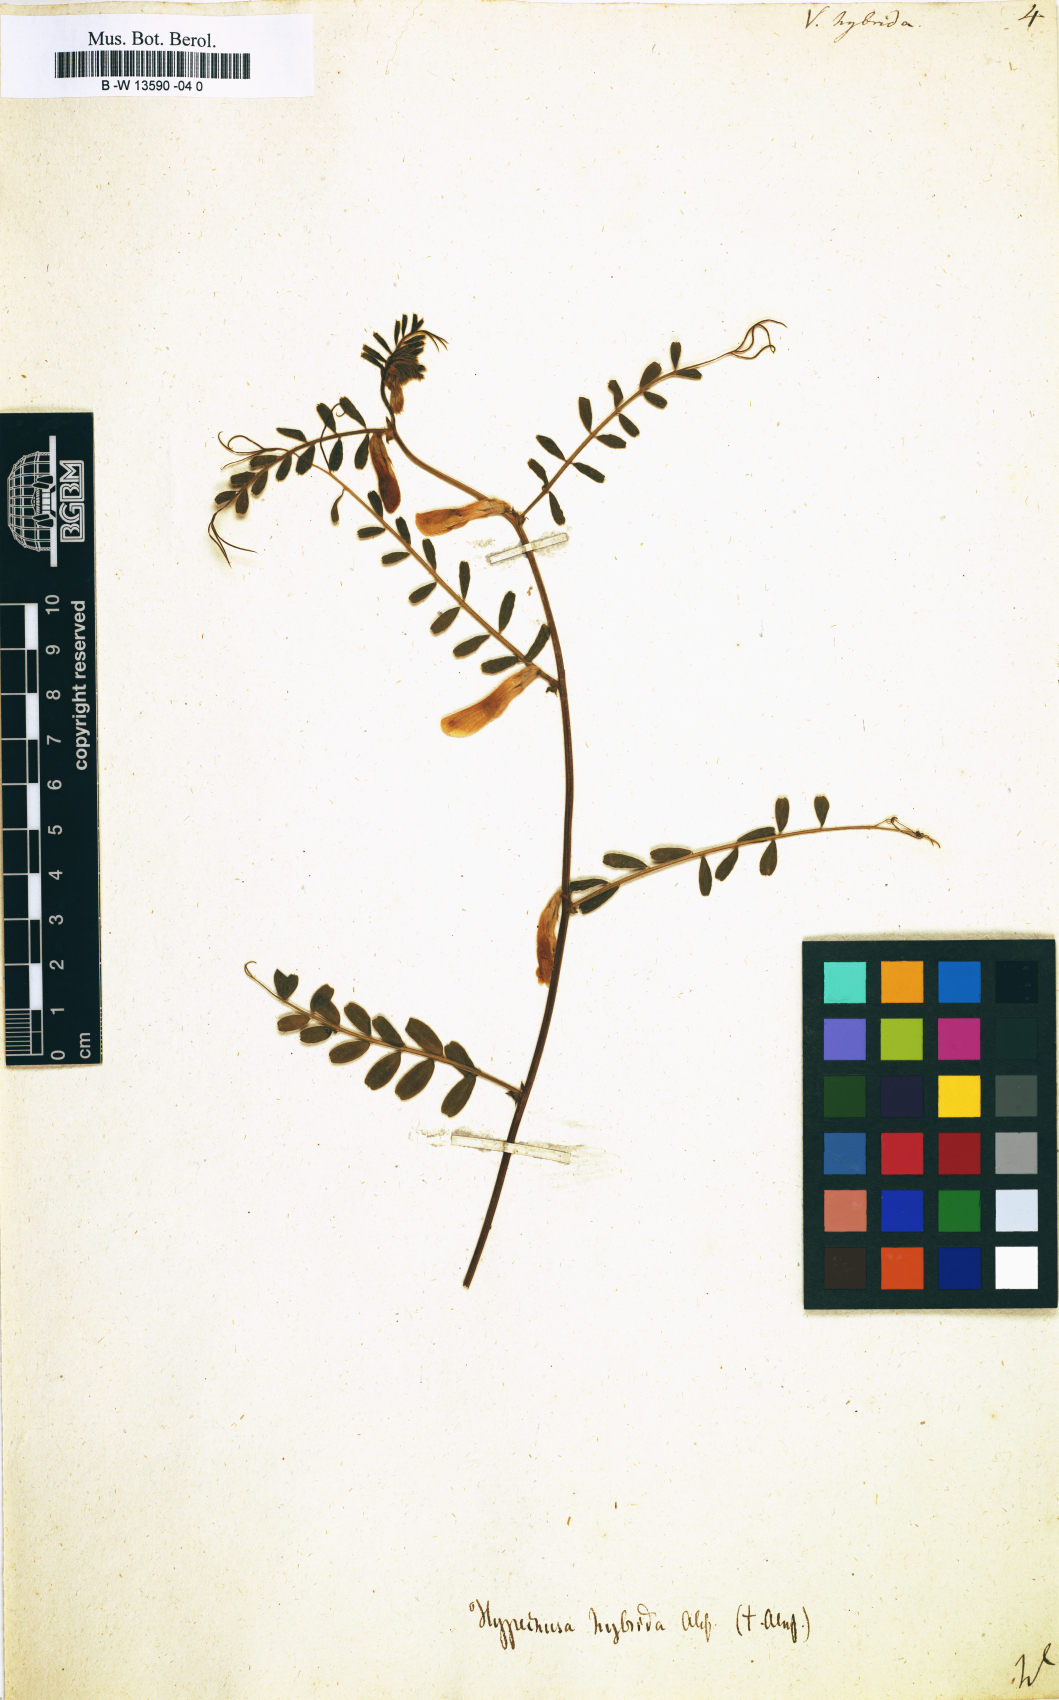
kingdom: Plantae
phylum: Tracheophyta
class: Magnoliopsida
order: Fabales
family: Fabaceae
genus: Vicia
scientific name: Vicia
